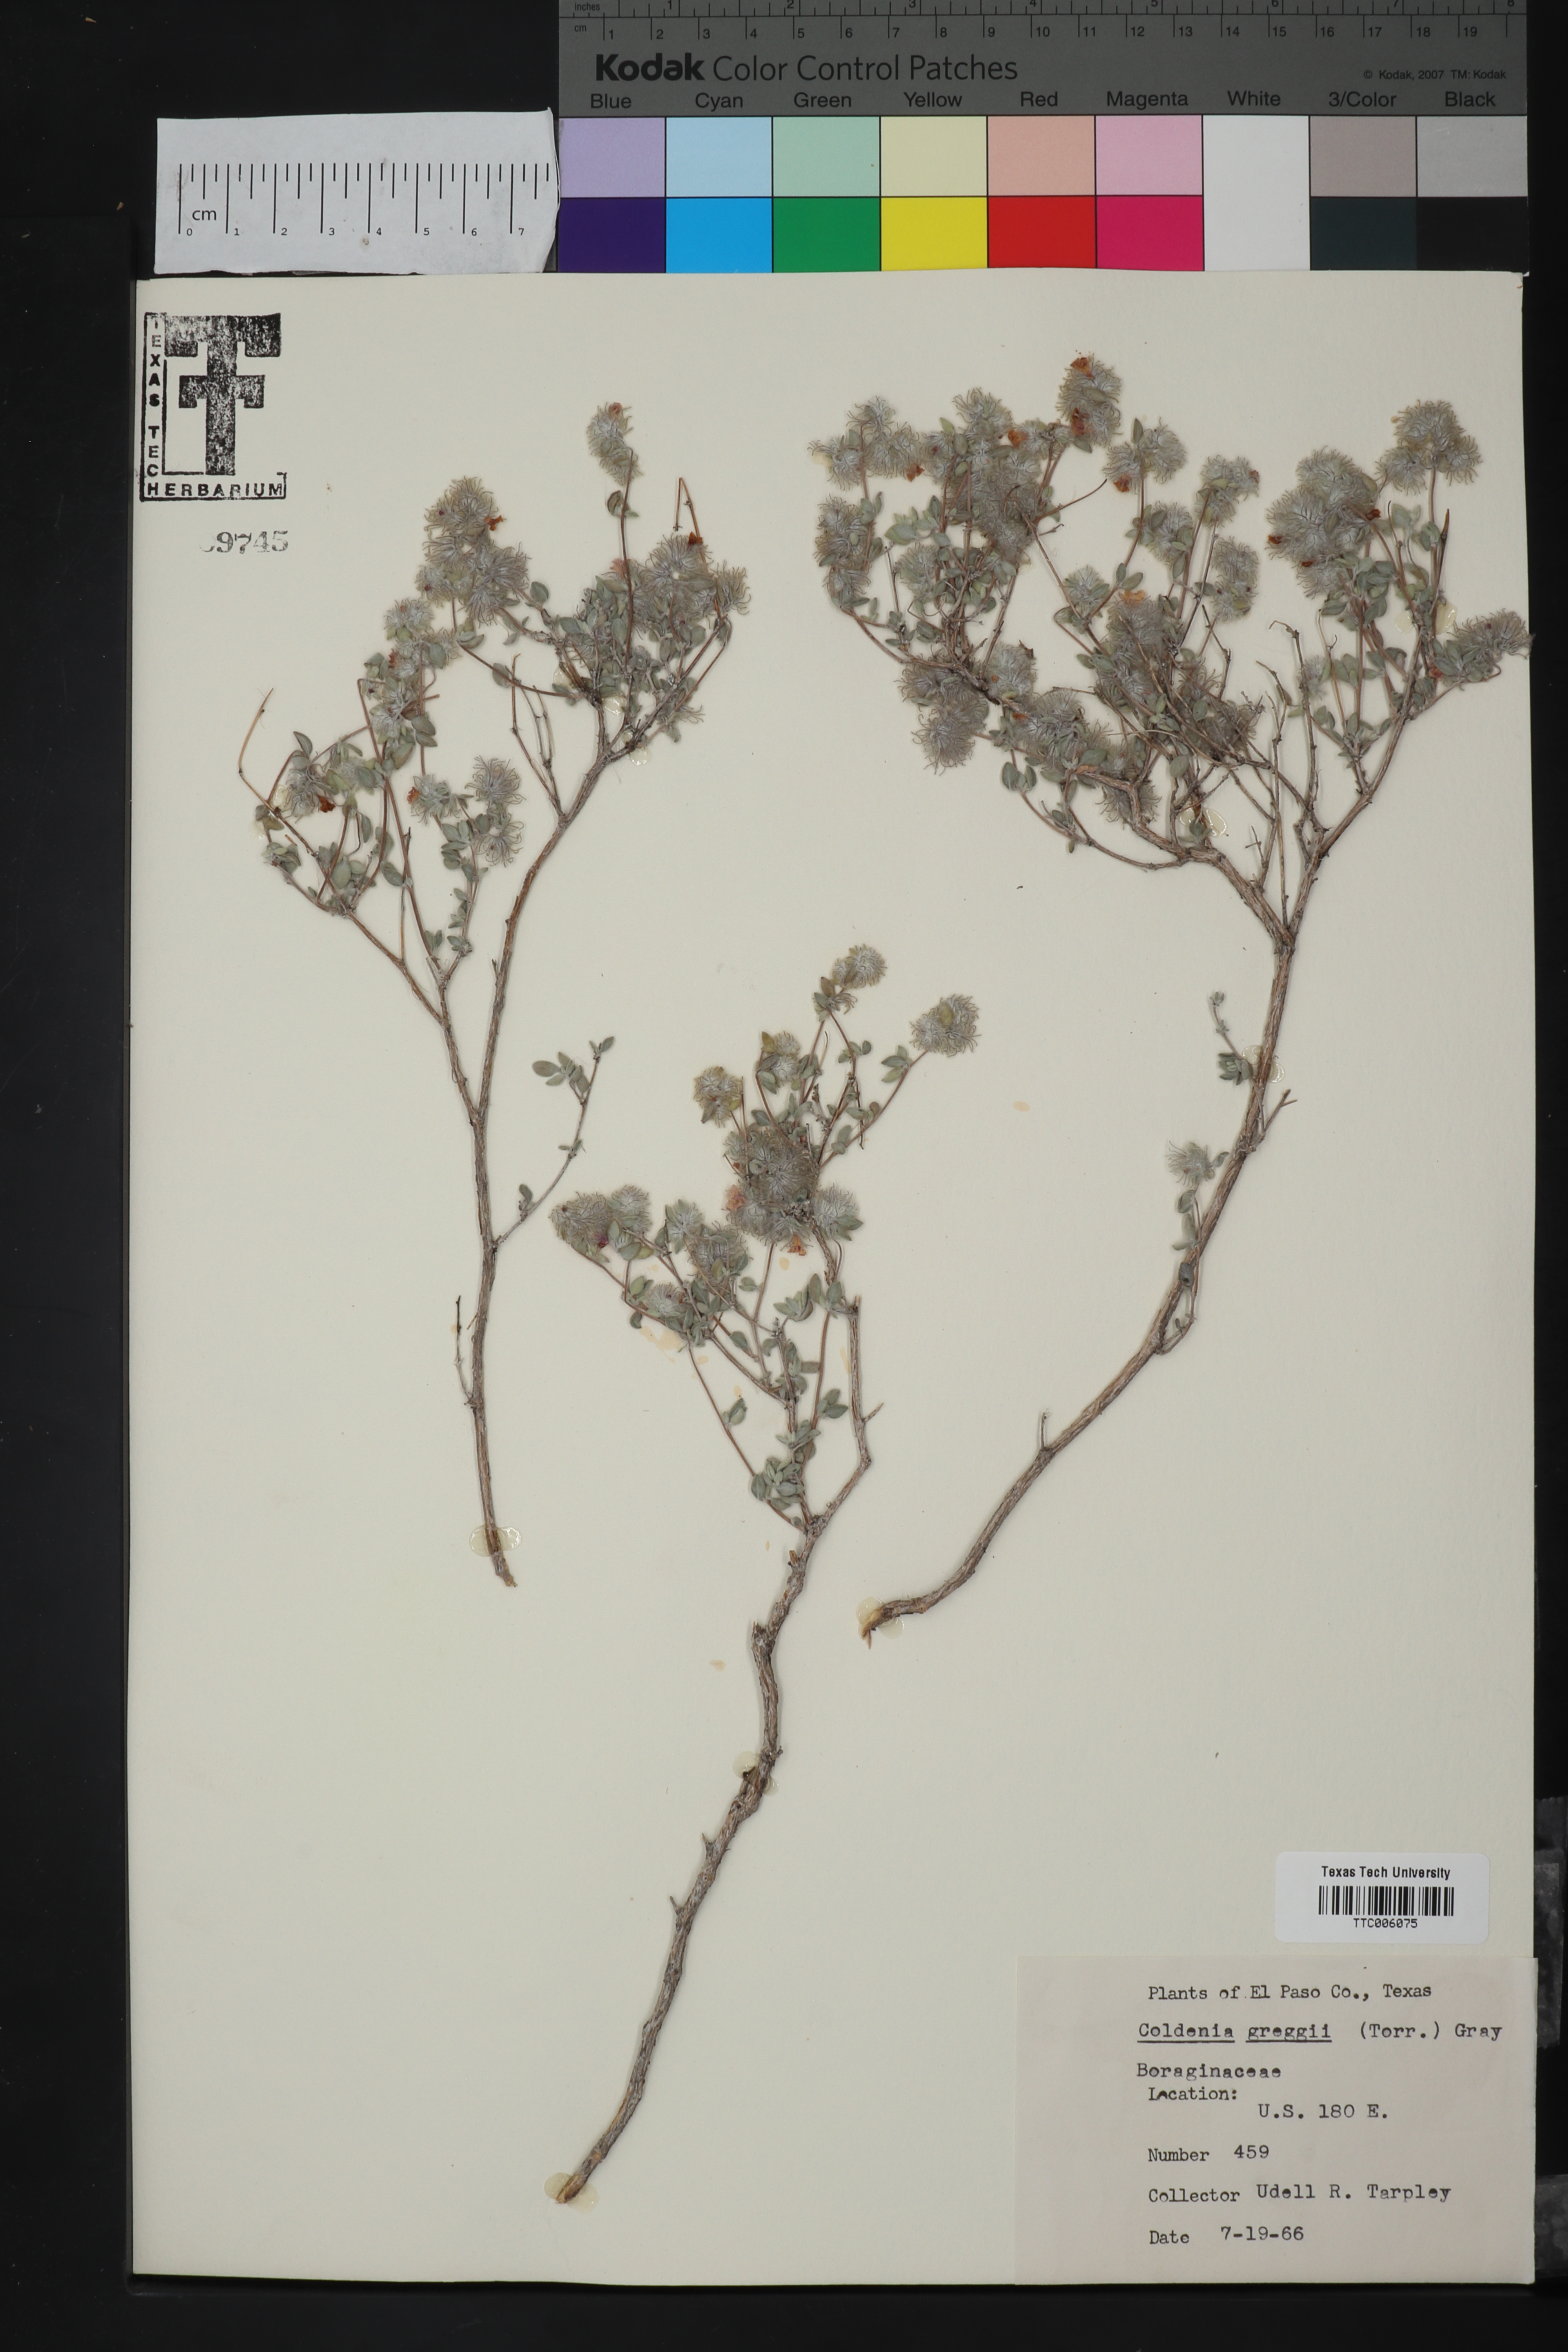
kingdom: Plantae
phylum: Tracheophyta
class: Magnoliopsida
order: Boraginales
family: Ehretiaceae
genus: Tiquilia
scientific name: Tiquilia greggii
